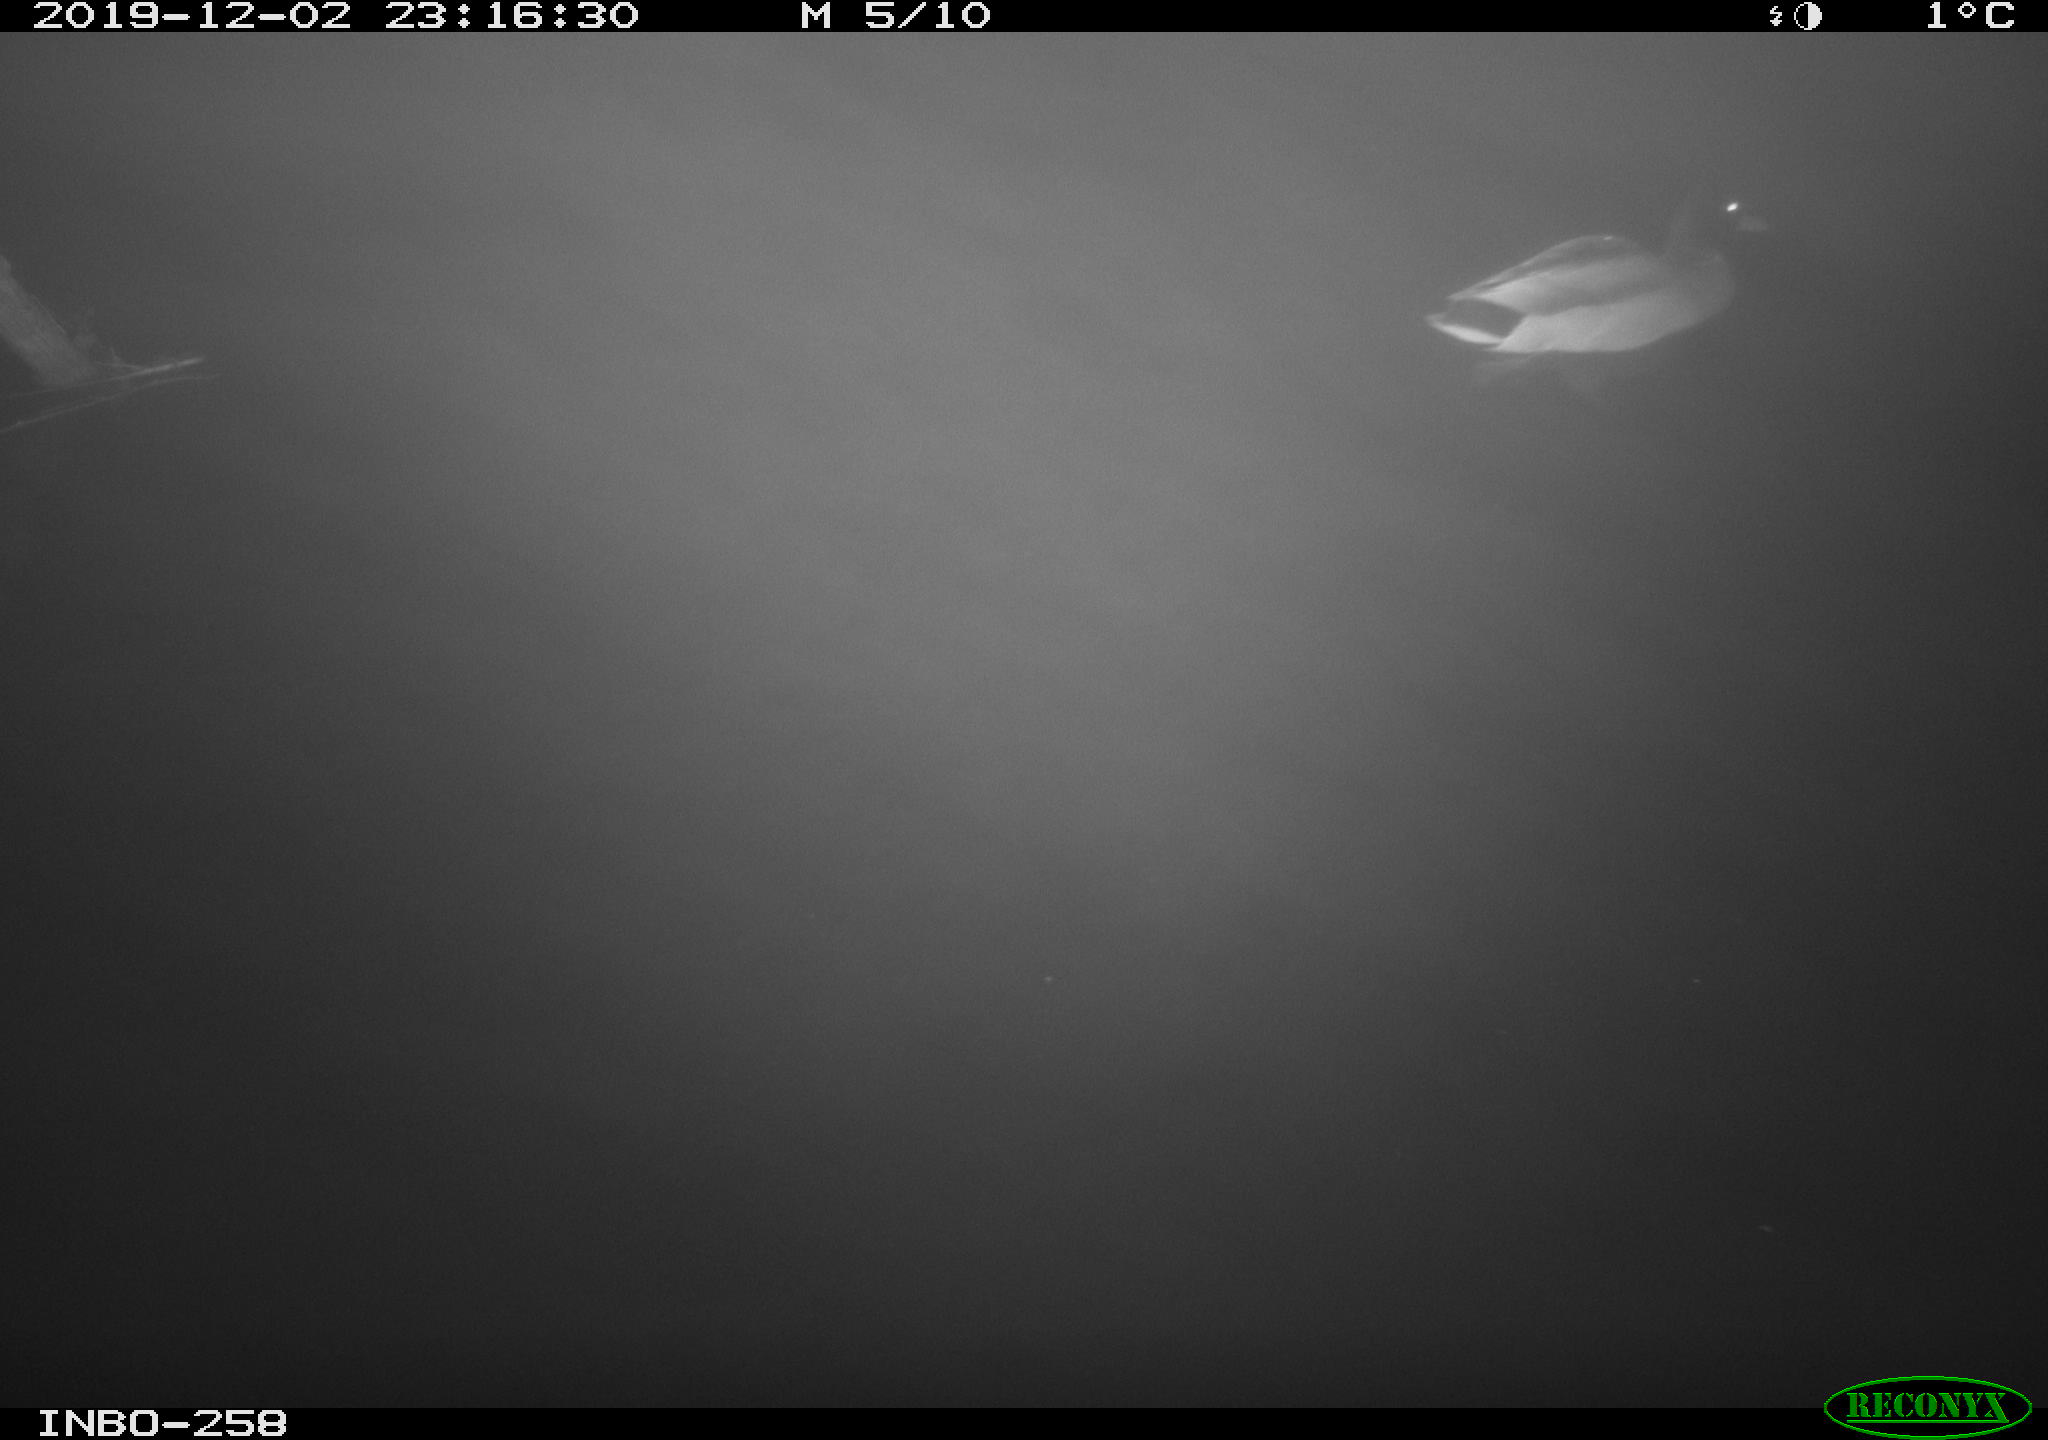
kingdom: Animalia
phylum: Chordata
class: Aves
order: Anseriformes
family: Anatidae
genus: Anas
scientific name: Anas platyrhynchos
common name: Mallard
